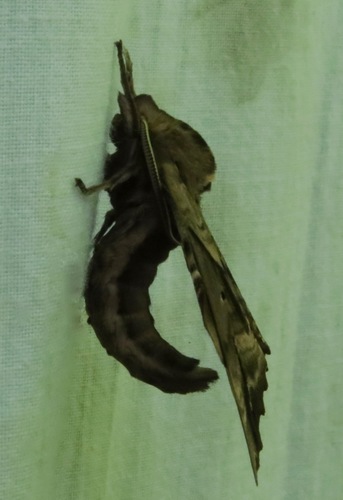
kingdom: Animalia
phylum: Arthropoda
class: Insecta
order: Lepidoptera
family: Sphingidae
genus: Paonias
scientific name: Paonias excaecata
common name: Blind-eyed sphinx
